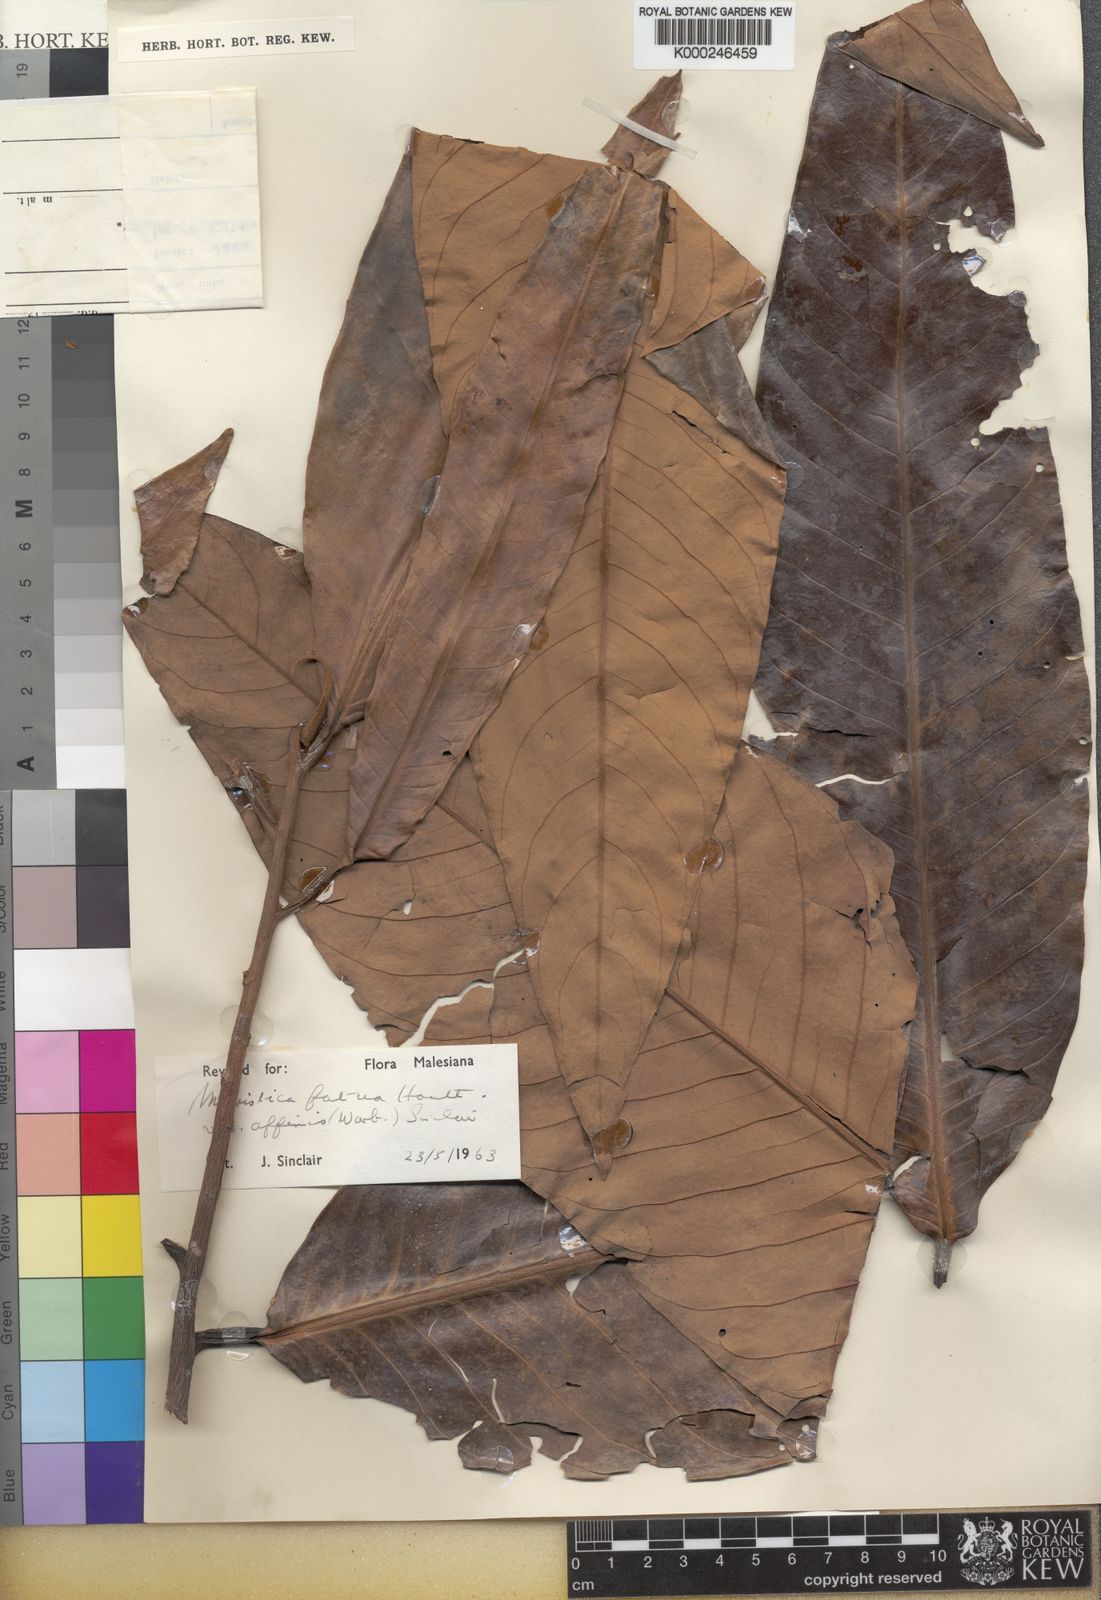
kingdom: Plantae
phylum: Tracheophyta
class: Magnoliopsida
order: Magnoliales
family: Myristicaceae
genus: Myristica
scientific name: Myristica fatua
